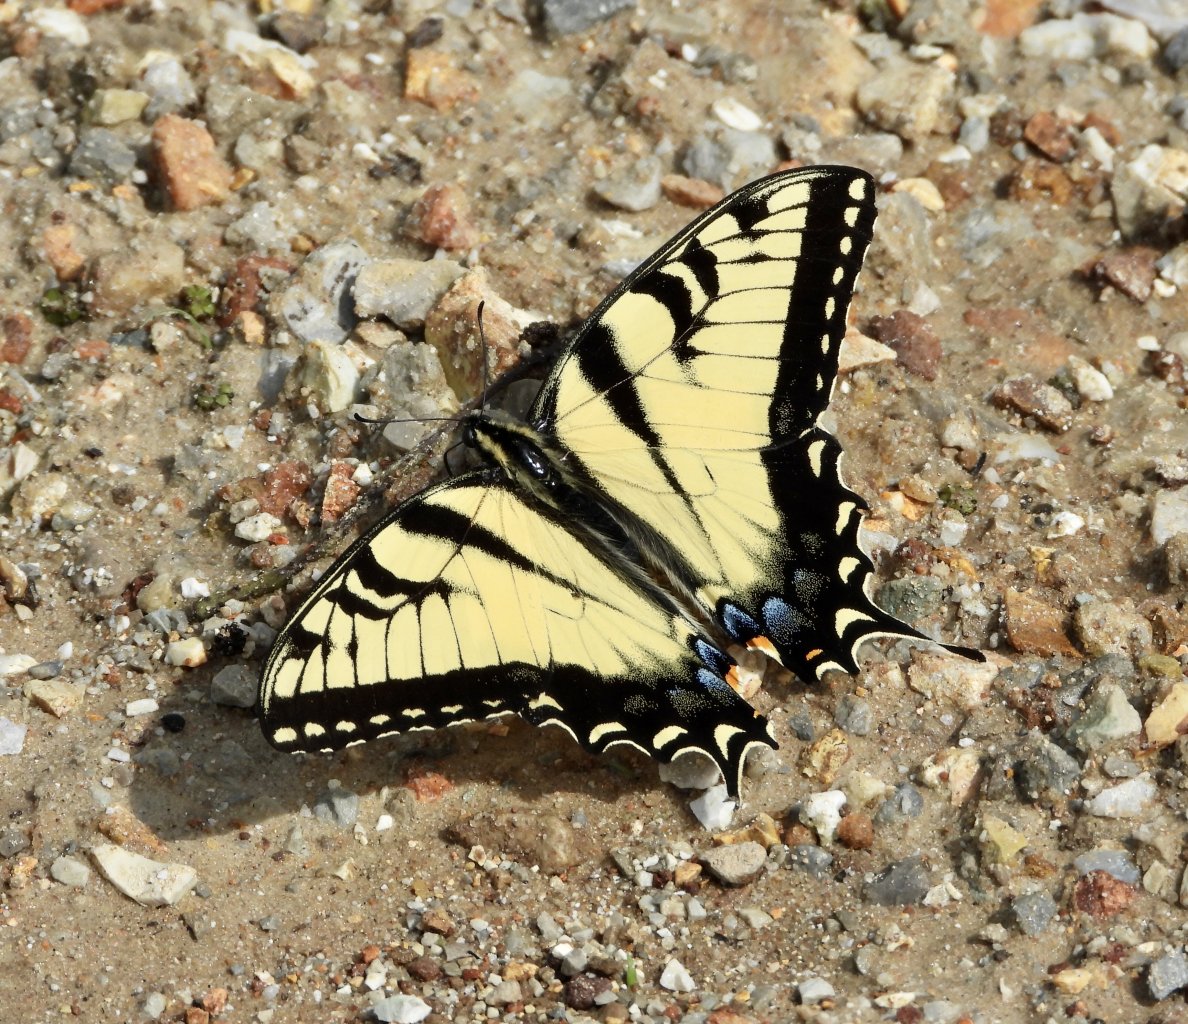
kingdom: Animalia
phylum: Arthropoda
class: Insecta
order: Lepidoptera
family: Papilionidae
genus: Pterourus
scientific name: Pterourus glaucus
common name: Eastern Tiger Swallowtail
